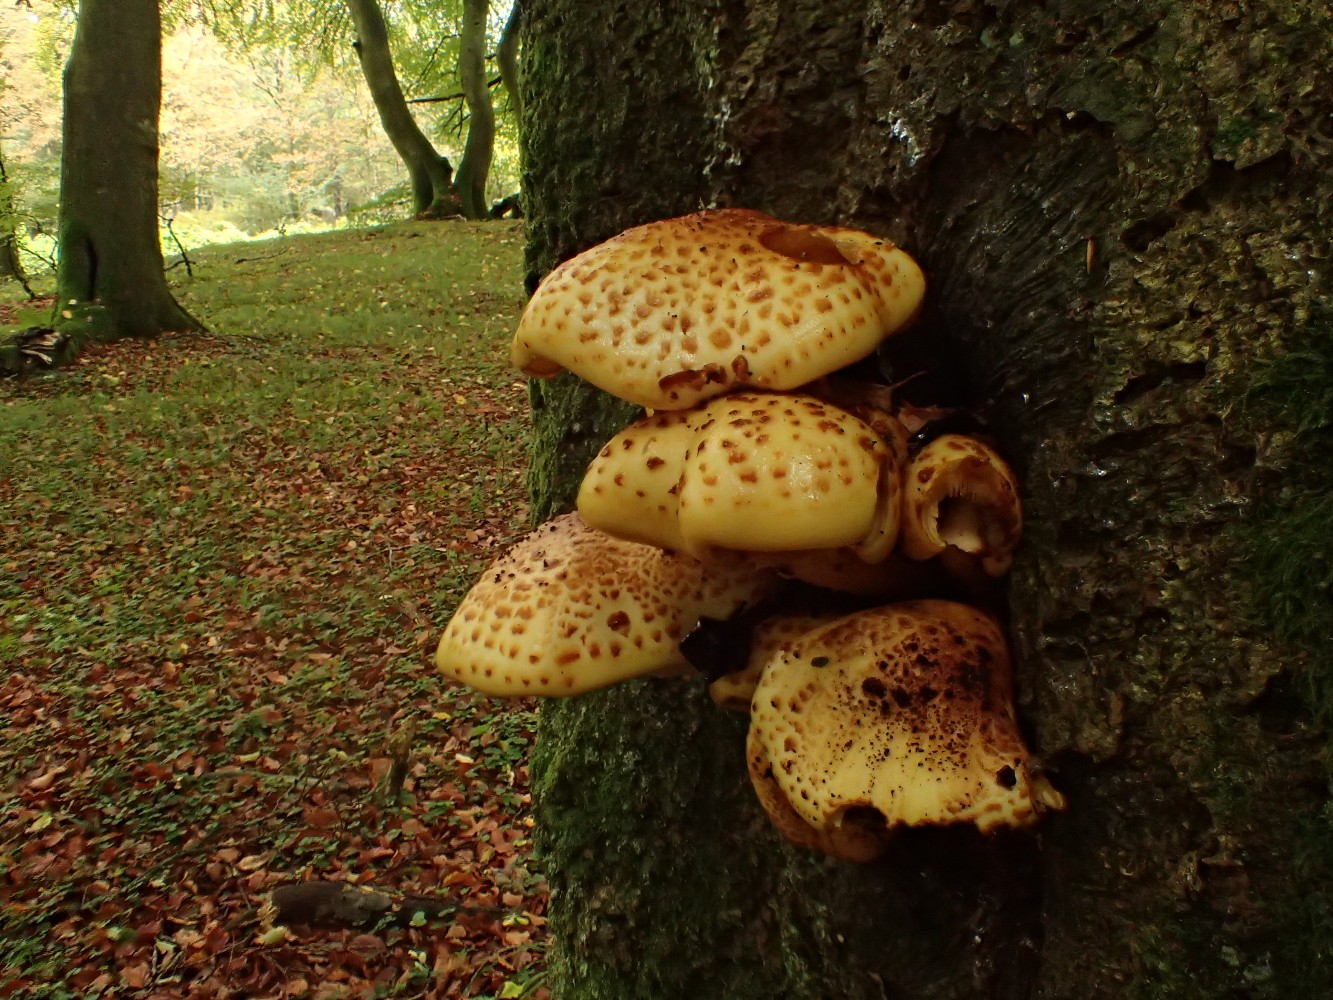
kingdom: Fungi
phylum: Basidiomycota
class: Agaricomycetes
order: Agaricales
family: Strophariaceae
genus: Pholiota
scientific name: Pholiota adiposa
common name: højtsiddende skælhat
